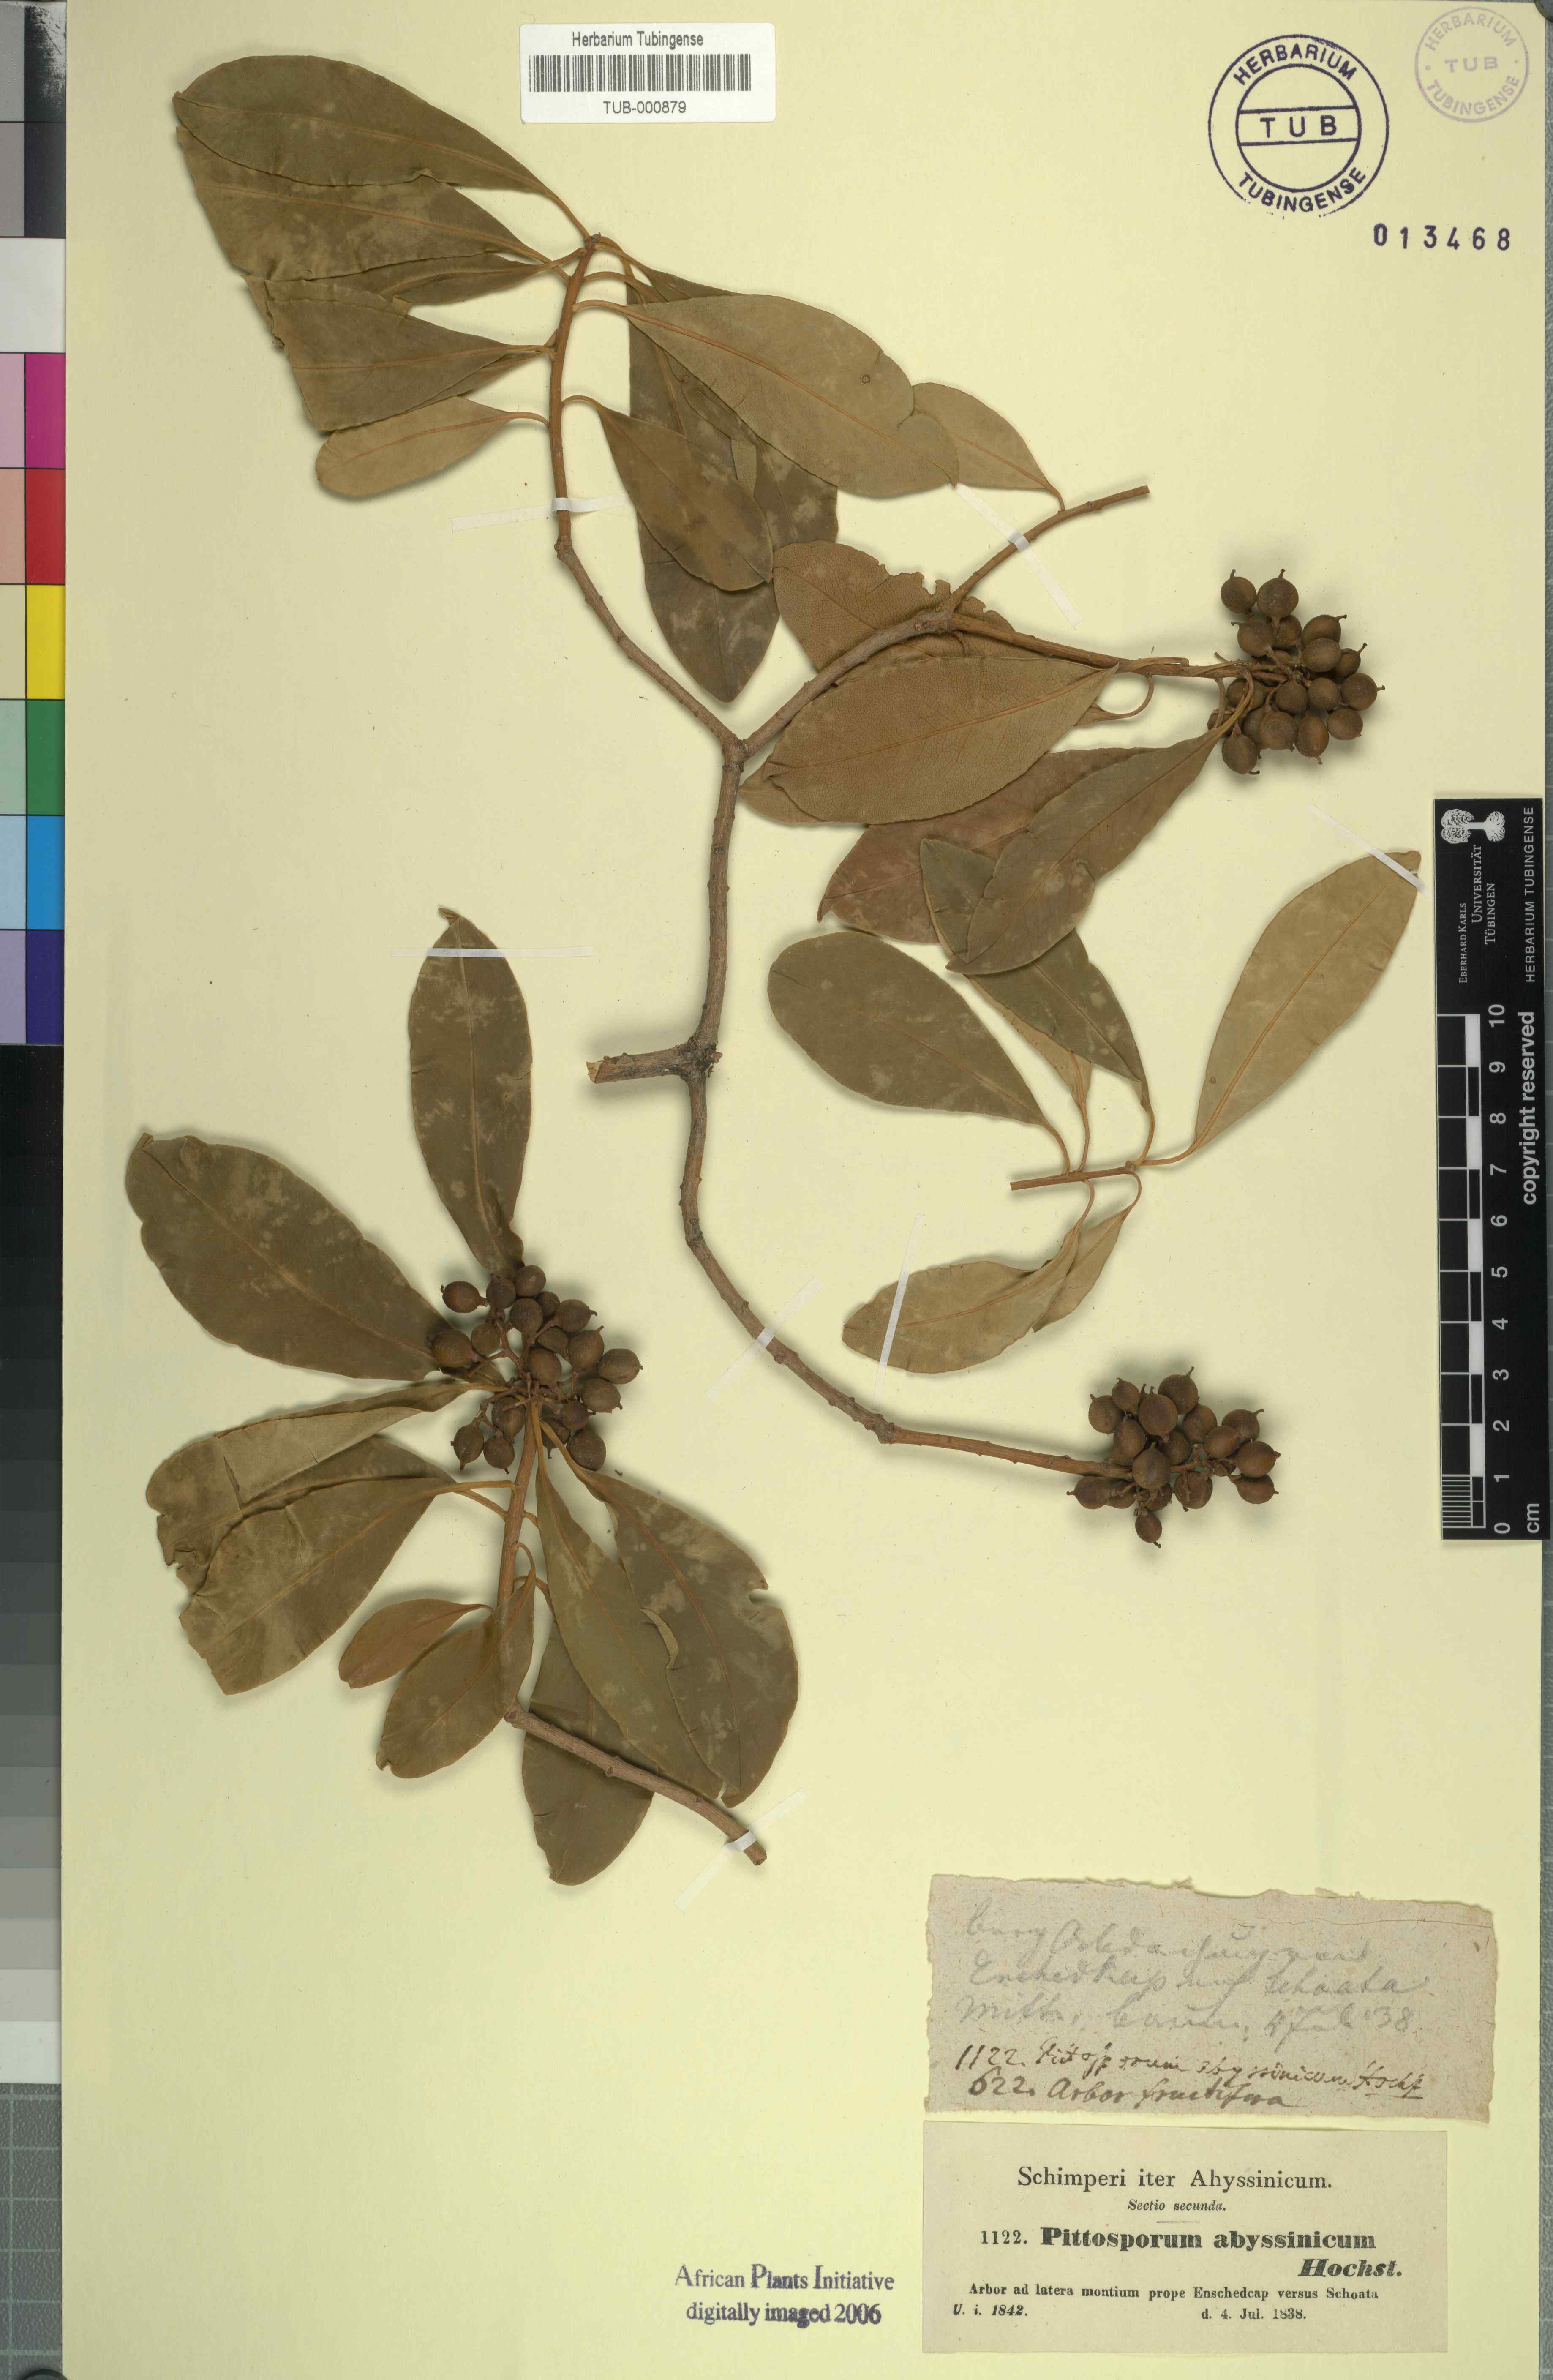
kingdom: Plantae
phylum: Tracheophyta
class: Magnoliopsida
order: Apiales
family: Pittosporaceae
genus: Pittosporum
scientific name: Pittosporum abyssinicum
